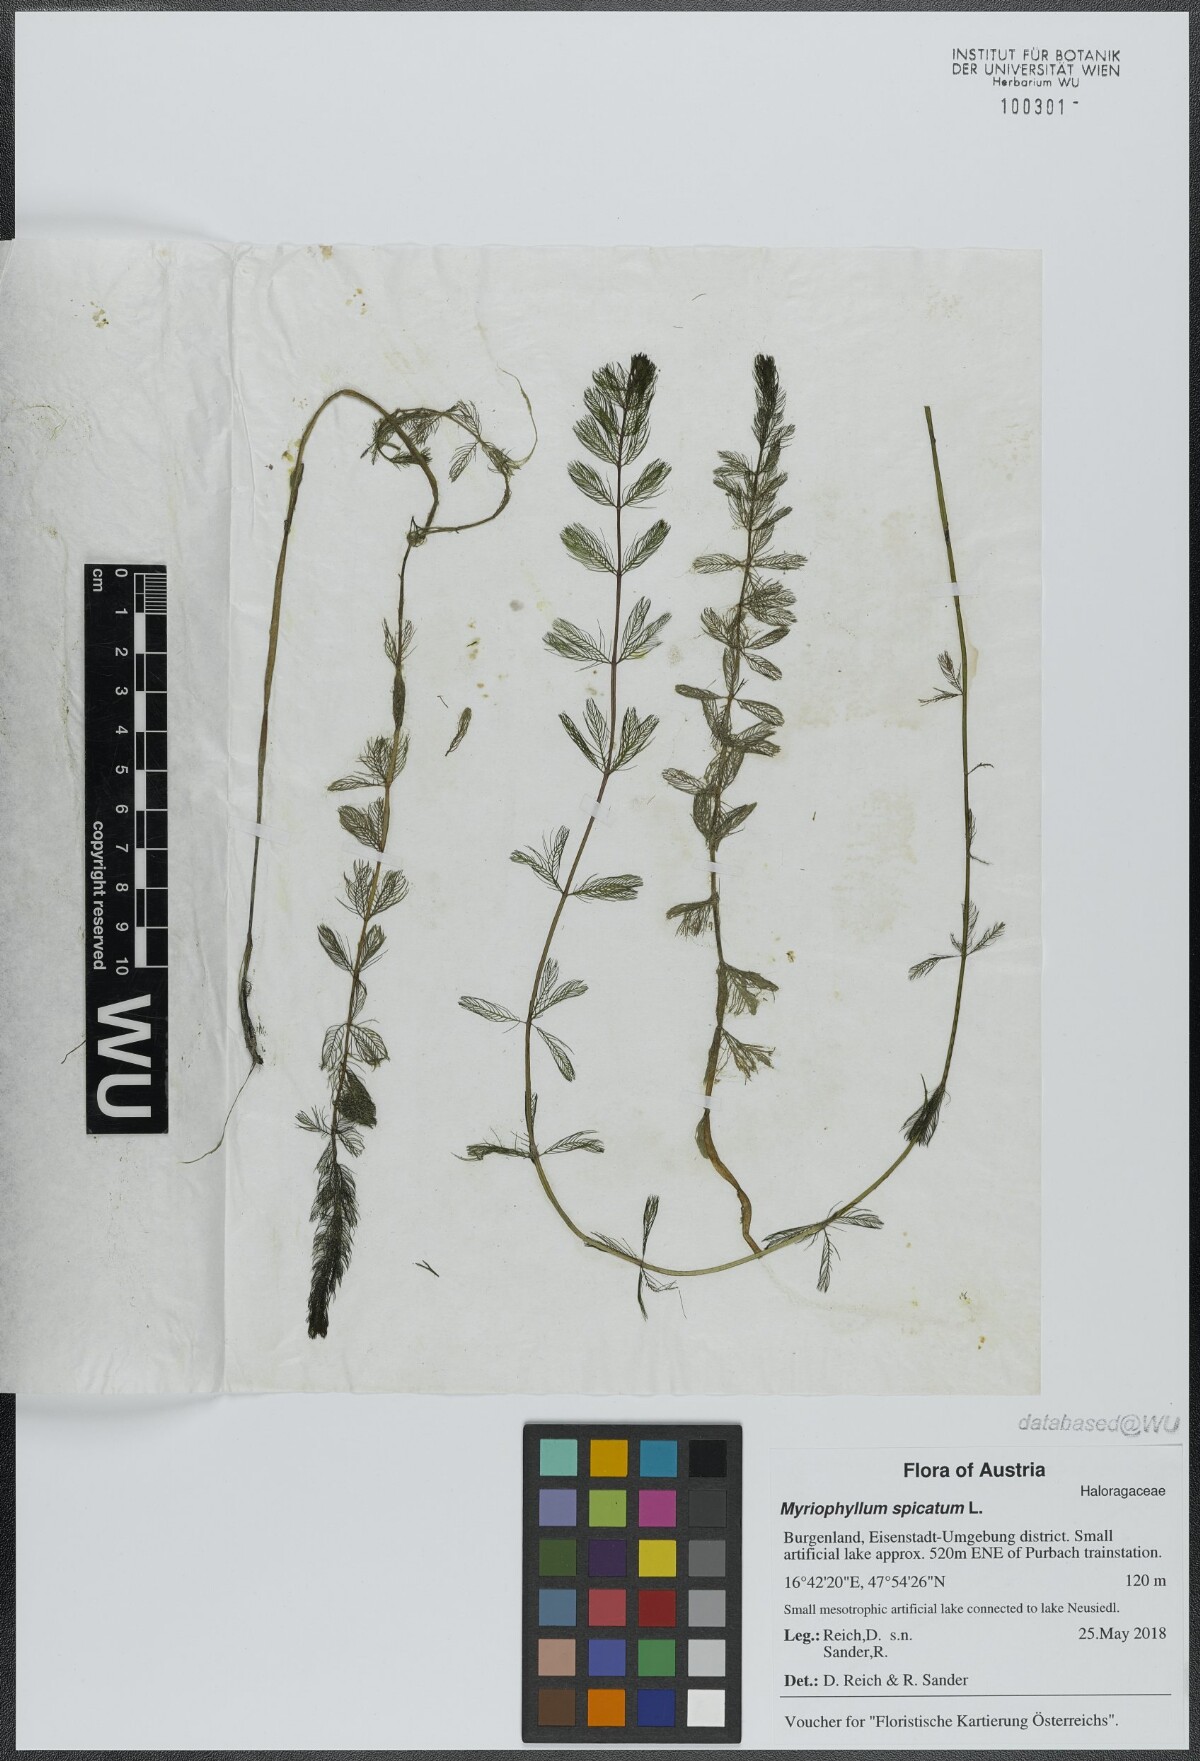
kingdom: Plantae
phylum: Tracheophyta
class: Magnoliopsida
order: Saxifragales
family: Haloragaceae
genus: Myriophyllum
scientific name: Myriophyllum spicatum
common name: Spiked water-milfoil
